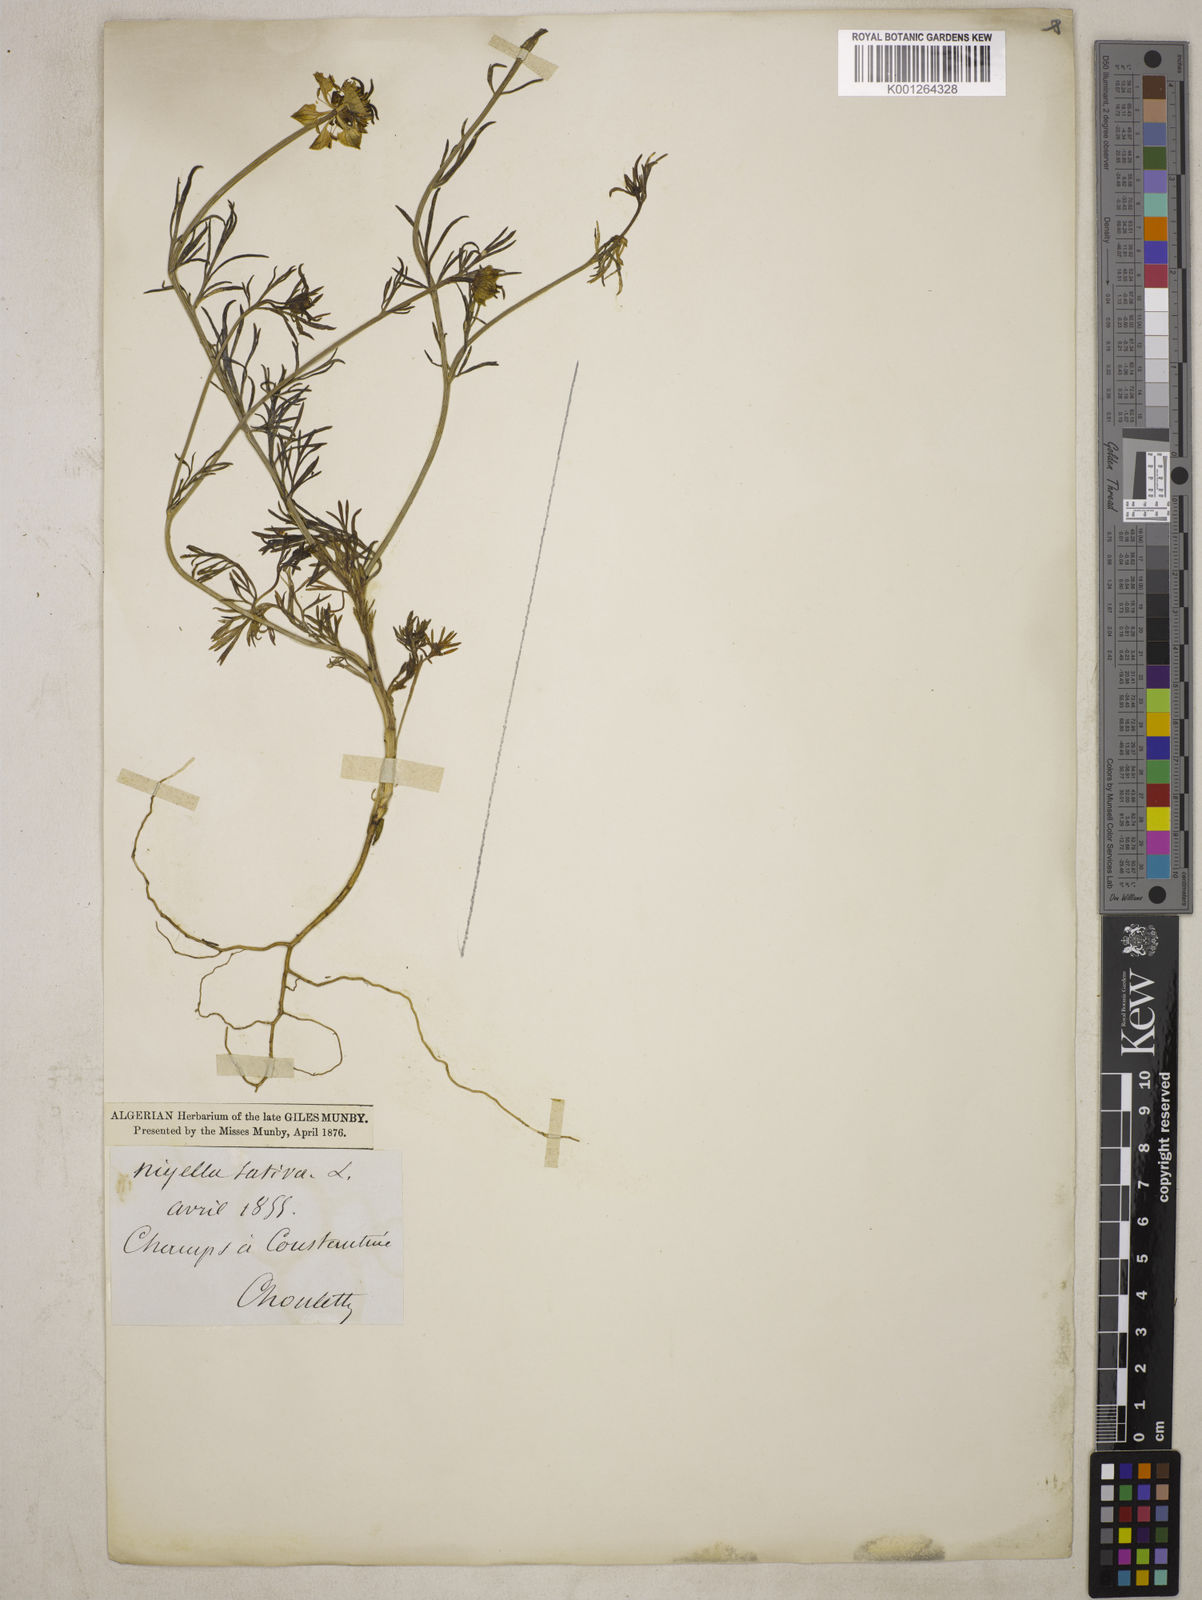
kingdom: Plantae
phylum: Tracheophyta
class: Magnoliopsida
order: Ranunculales
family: Ranunculaceae
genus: Nigella
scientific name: Nigella arvensis
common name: Wild fennel-flower
